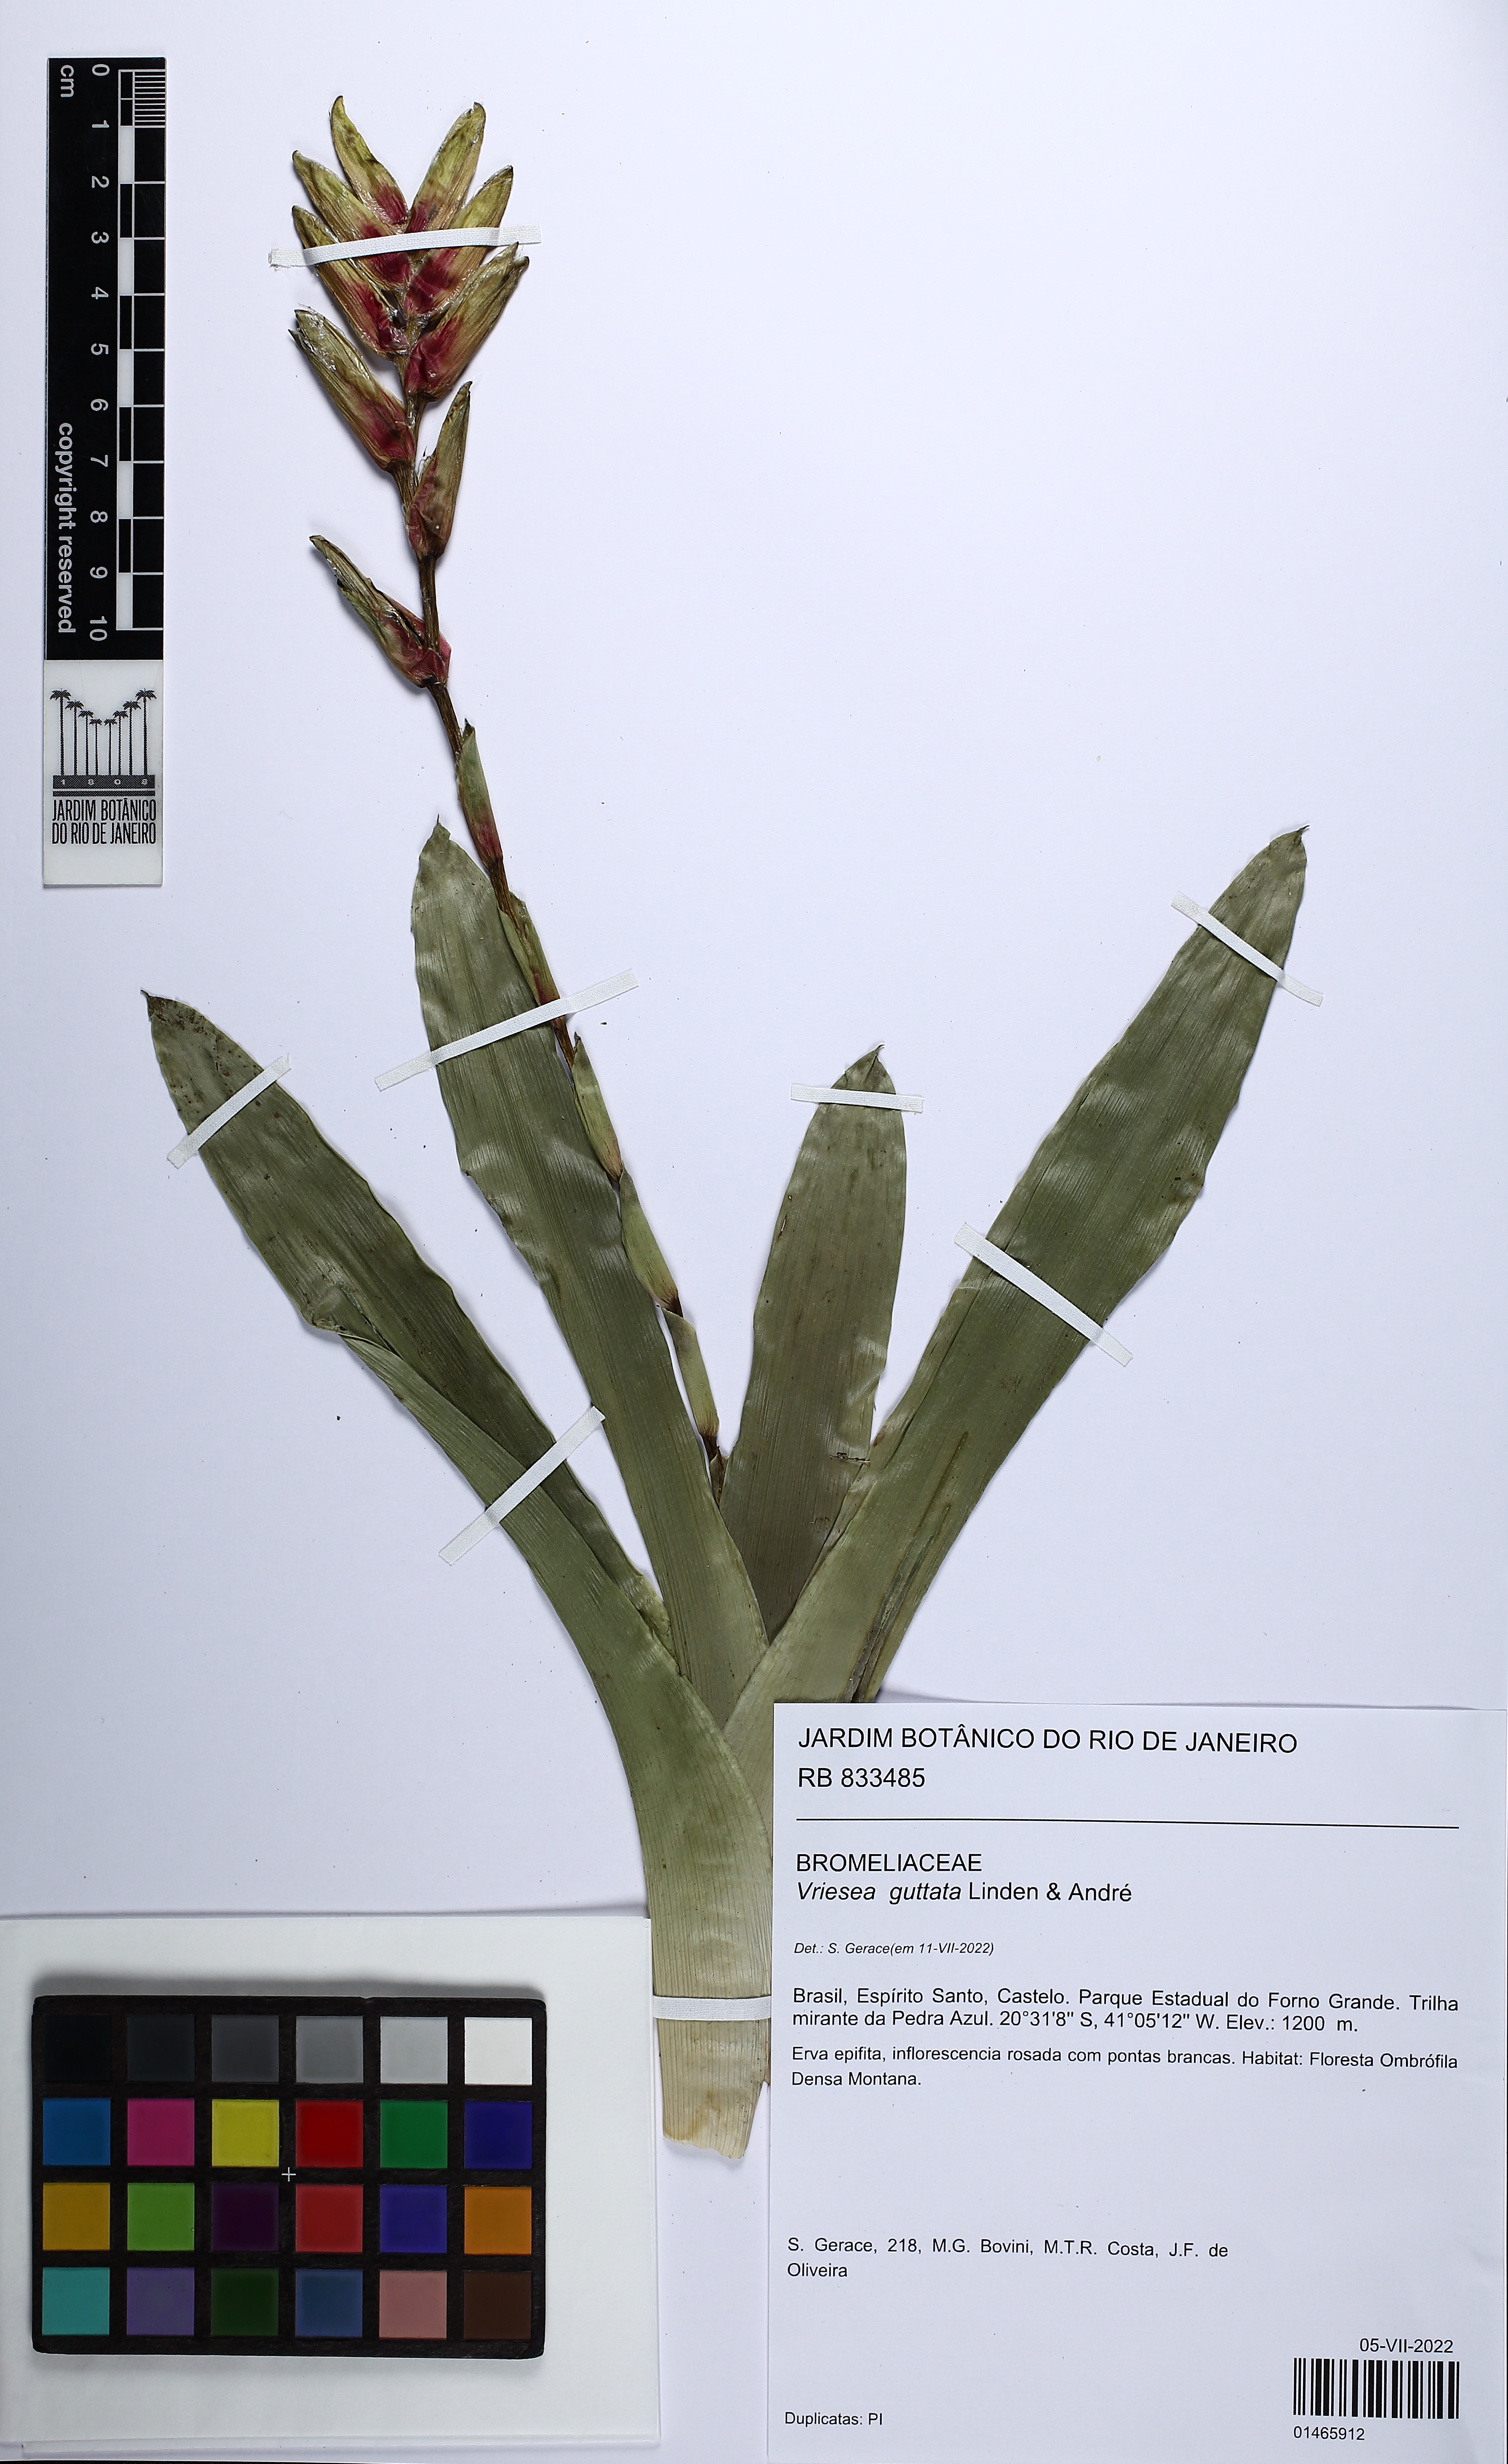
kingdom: Plantae
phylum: Tracheophyta
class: Liliopsida
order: Poales
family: Bromeliaceae
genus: Vriesea
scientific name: Vriesea guttata
